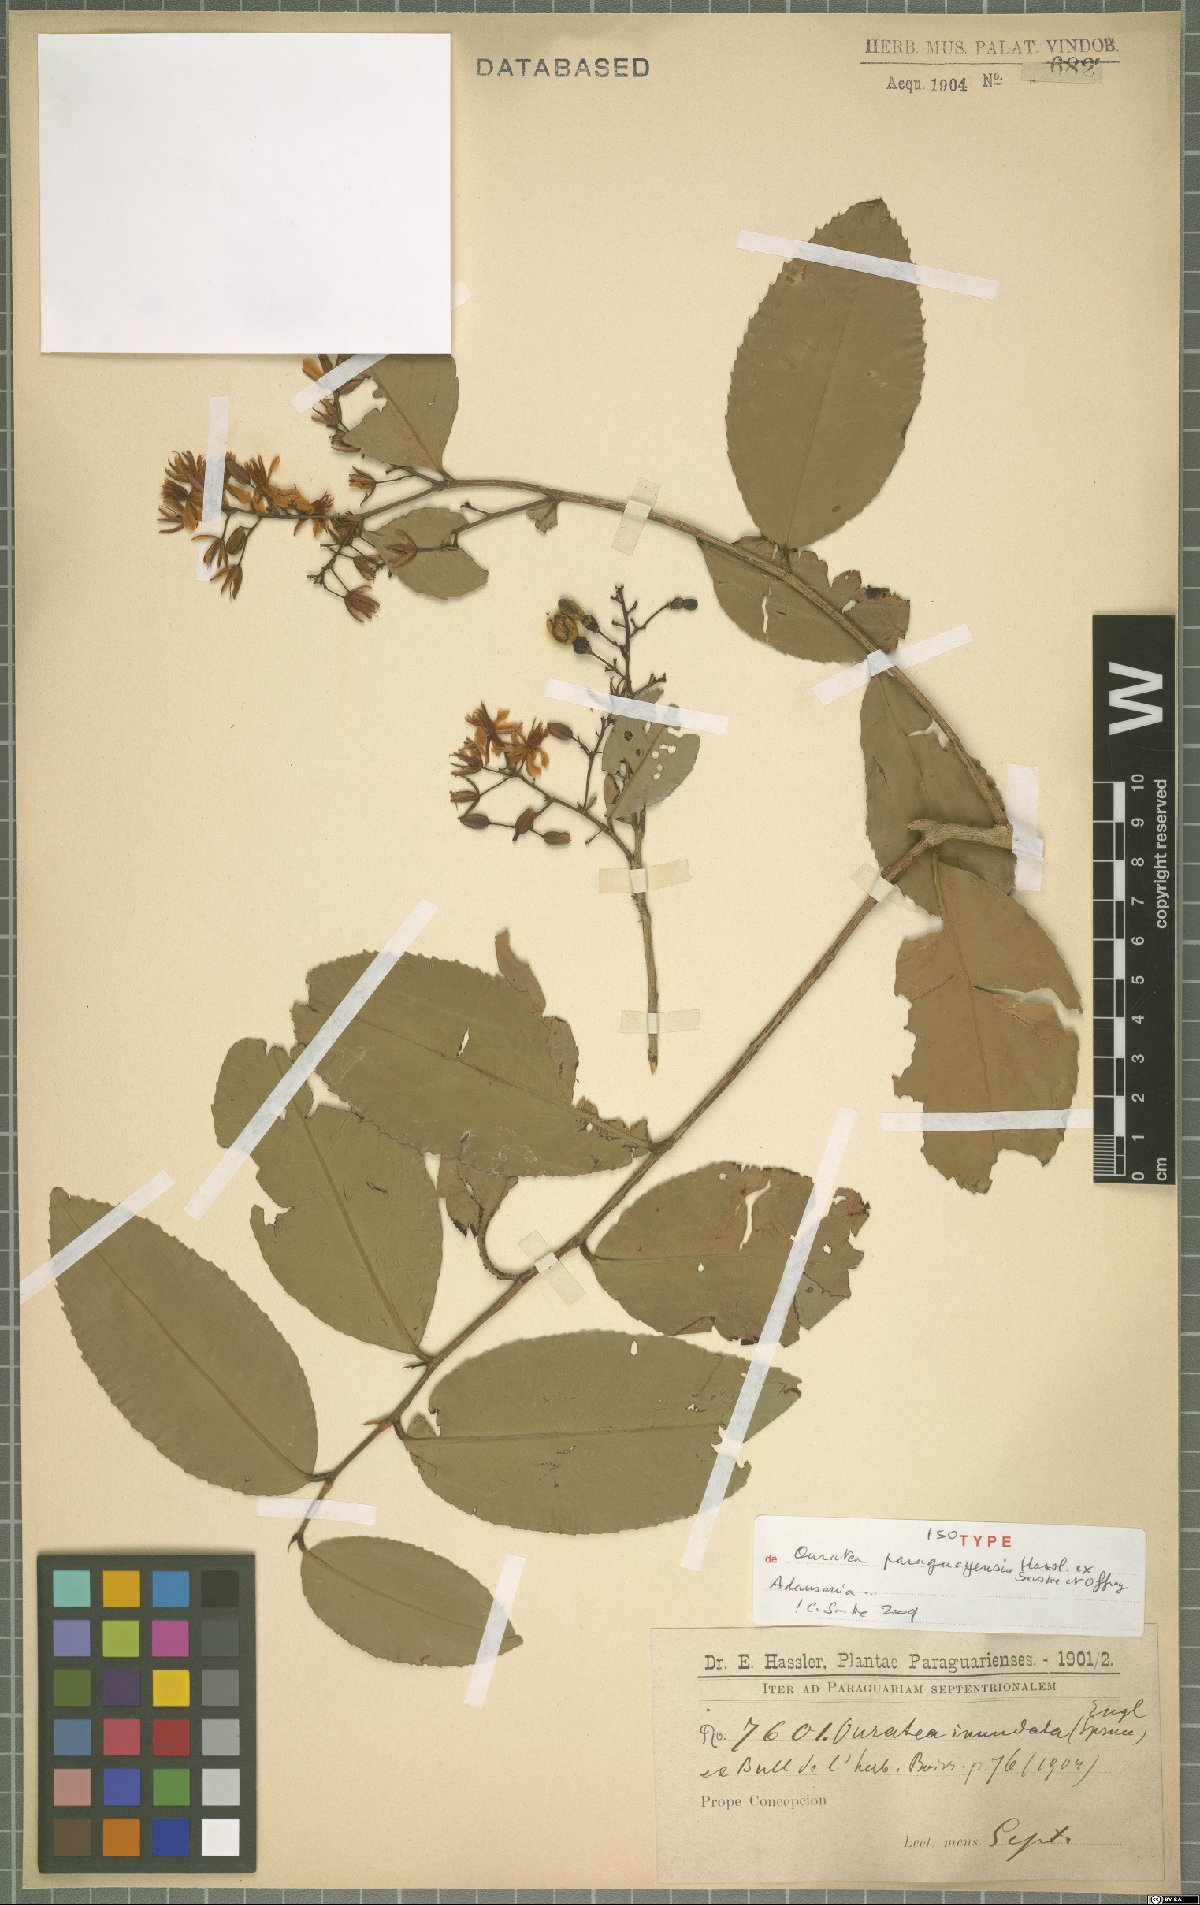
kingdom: Plantae
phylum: Tracheophyta
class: Magnoliopsida
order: Malpighiales
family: Ochnaceae
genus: Ouratea
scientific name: Ouratea paraguayensis
